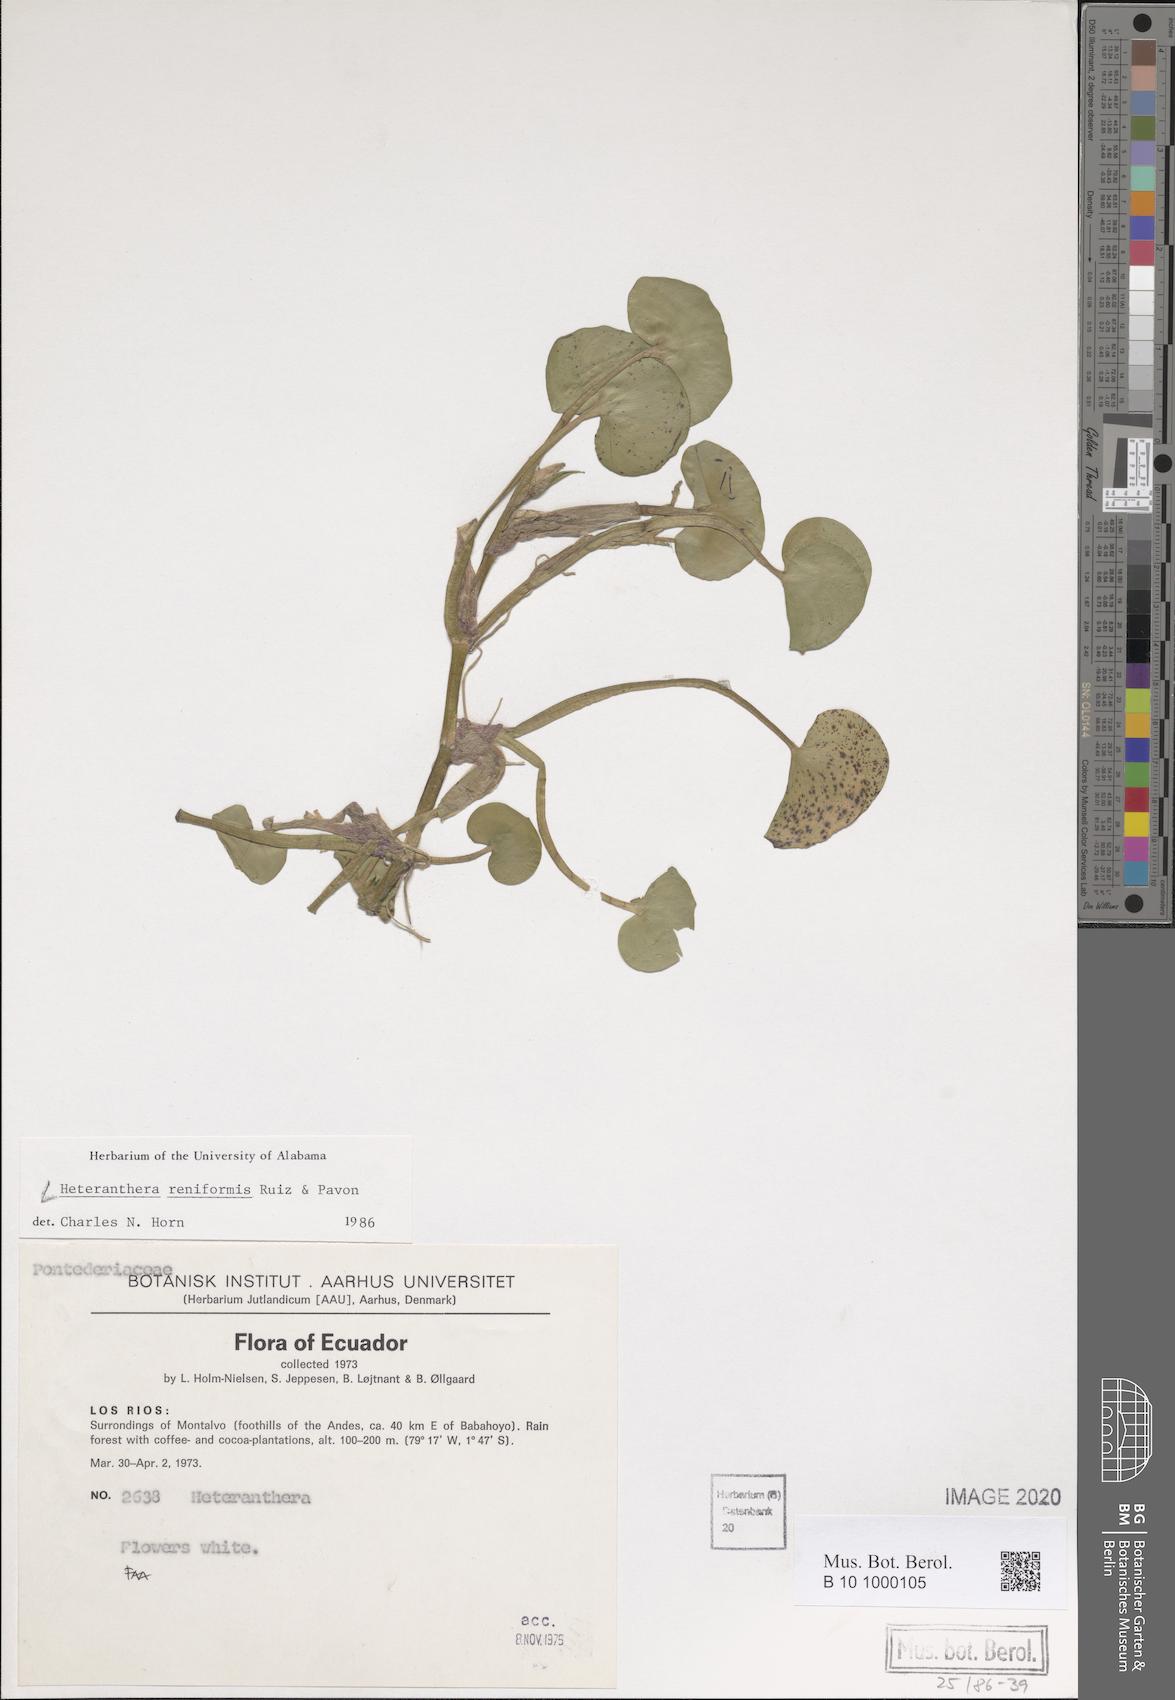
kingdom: Plantae
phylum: Tracheophyta
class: Liliopsida
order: Commelinales
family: Pontederiaceae
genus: Heteranthera
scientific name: Heteranthera reniformis
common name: Kidneyleaf mudplantain
